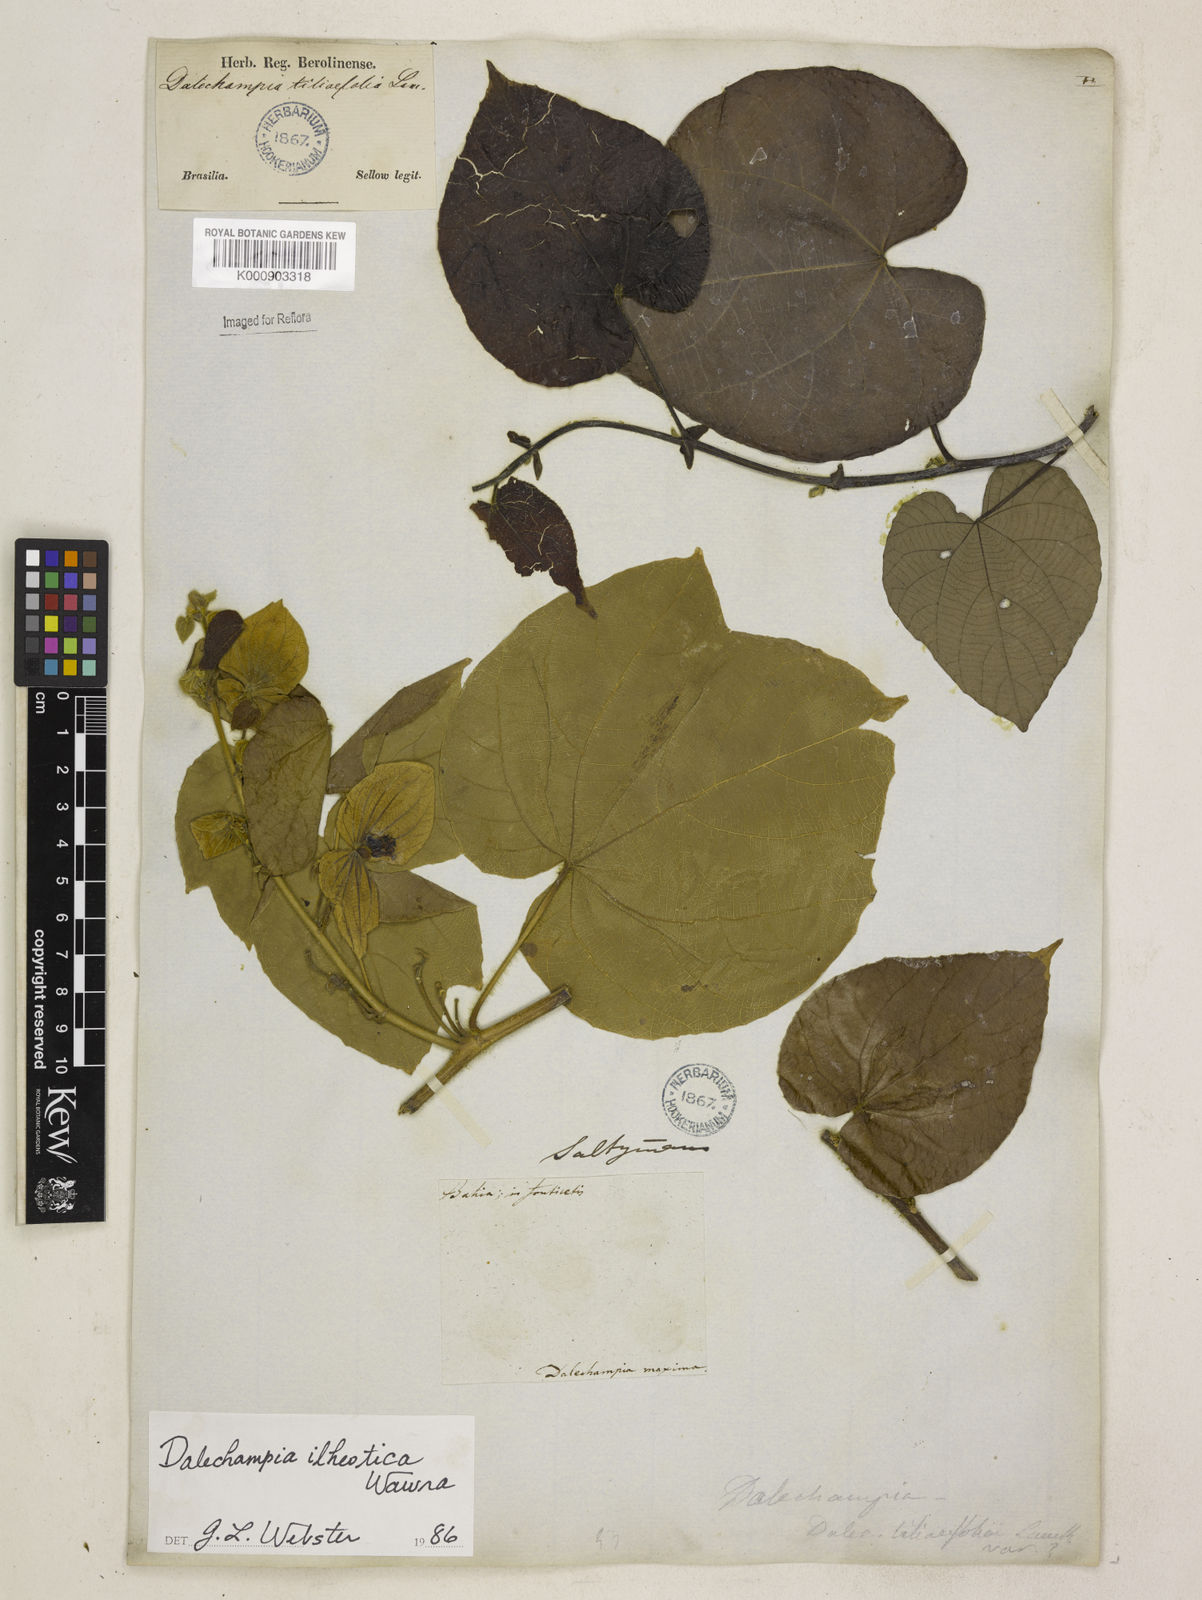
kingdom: Plantae
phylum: Tracheophyta
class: Magnoliopsida
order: Malpighiales
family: Euphorbiaceae
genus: Dalechampia
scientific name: Dalechampia ilheotica
